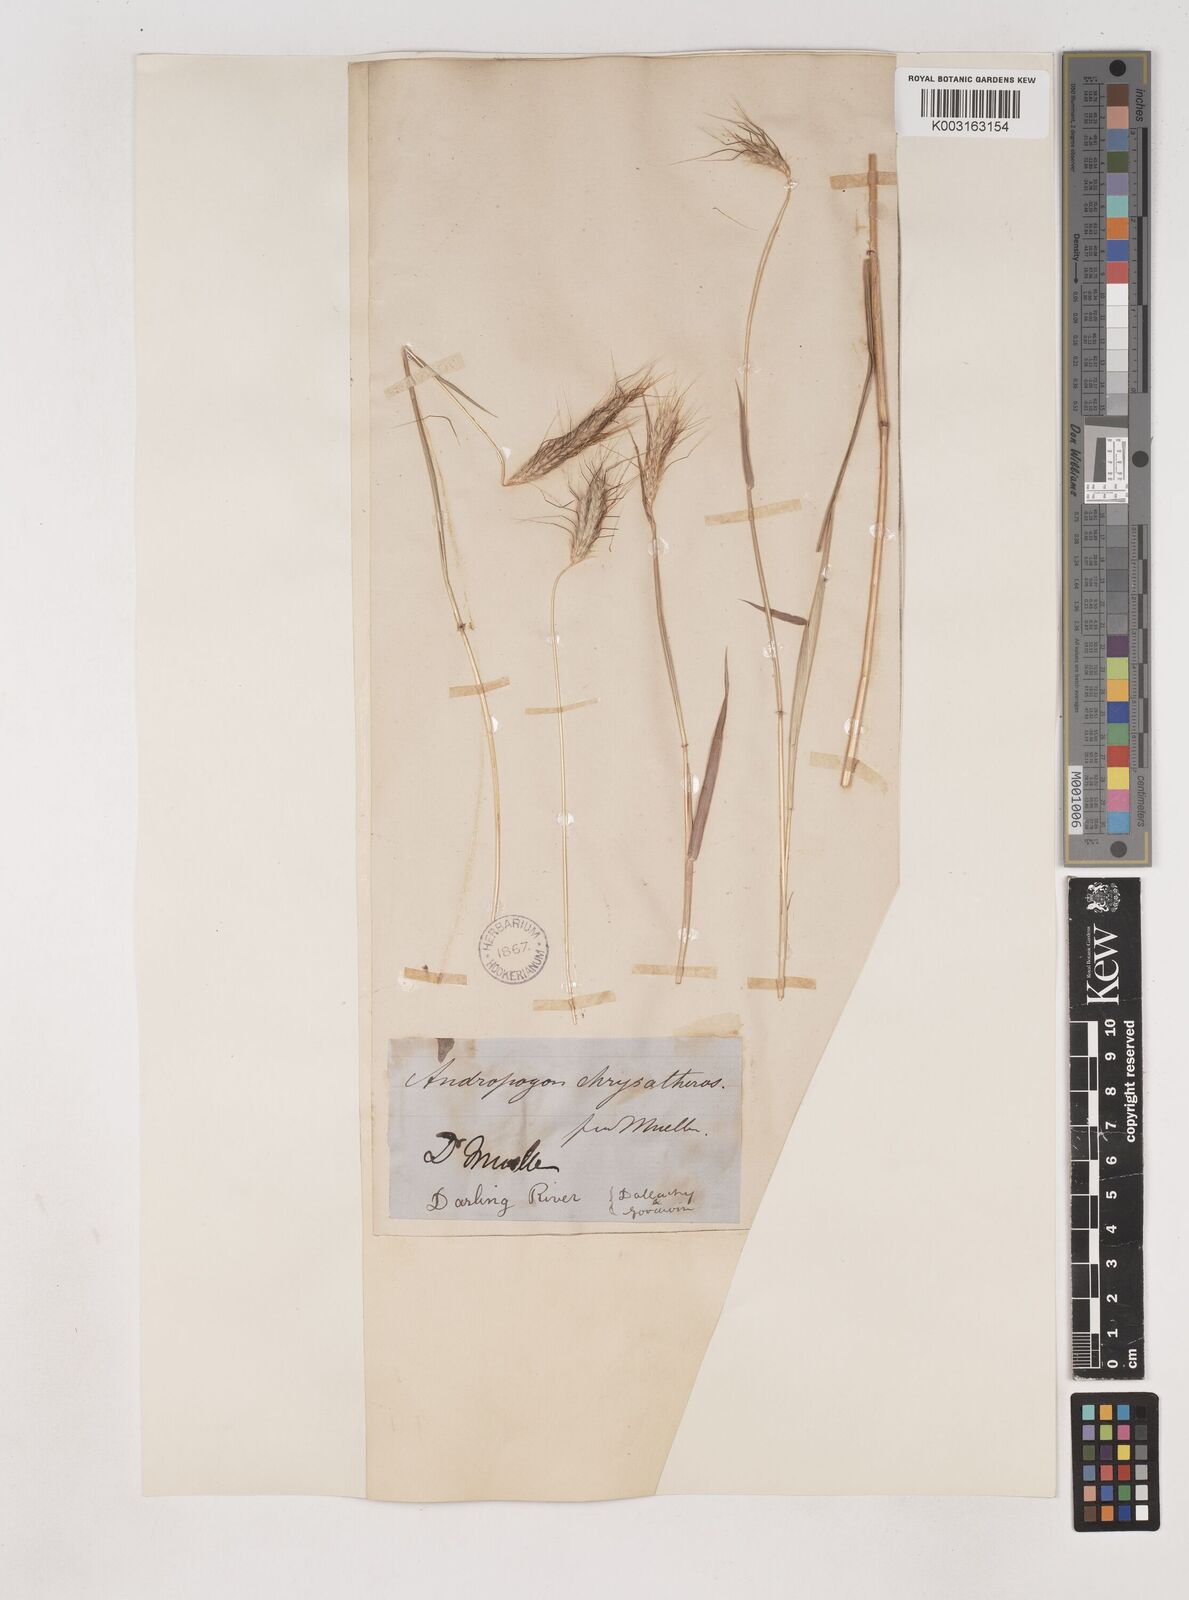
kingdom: Plantae
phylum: Tracheophyta
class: Liliopsida
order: Poales
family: Poaceae
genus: Dichanthium
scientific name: Dichanthium sericeum
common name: Silky bluestem
